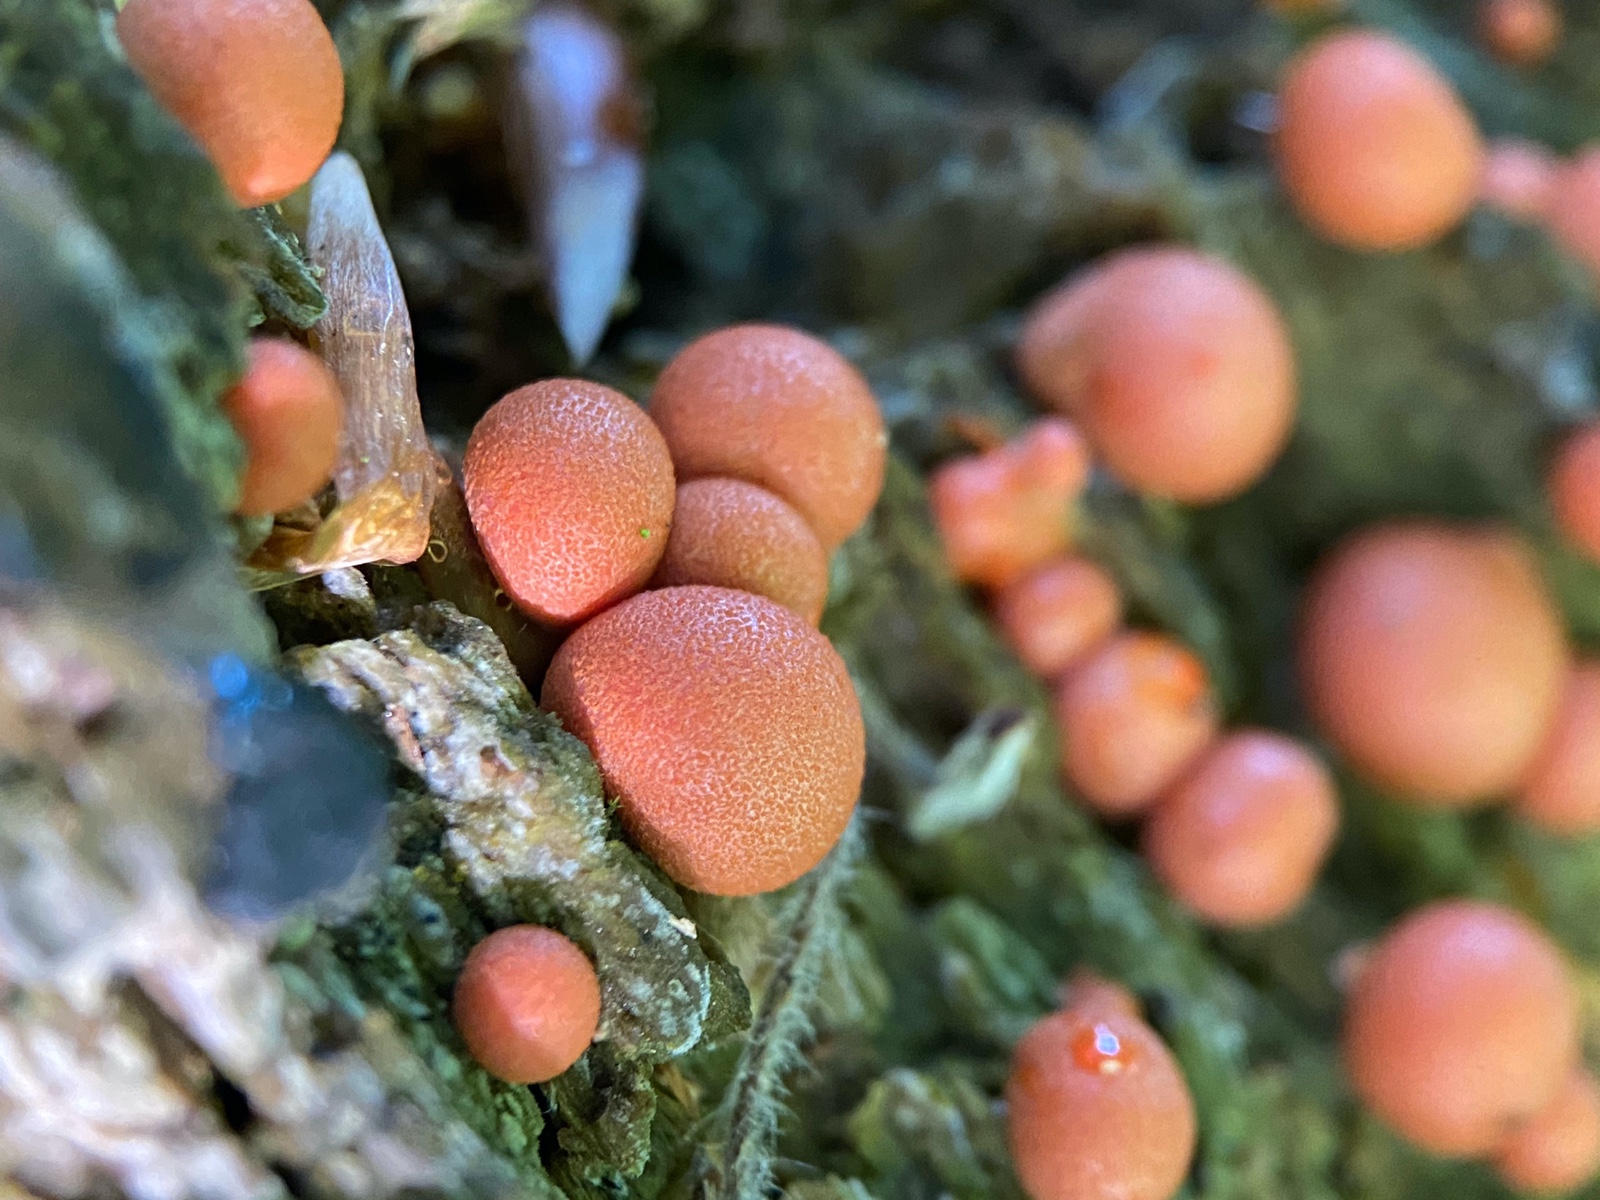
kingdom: Protozoa
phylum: Mycetozoa
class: Myxomycetes
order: Cribrariales
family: Tubiferaceae
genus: Lycogala
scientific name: Lycogala epidendrum
